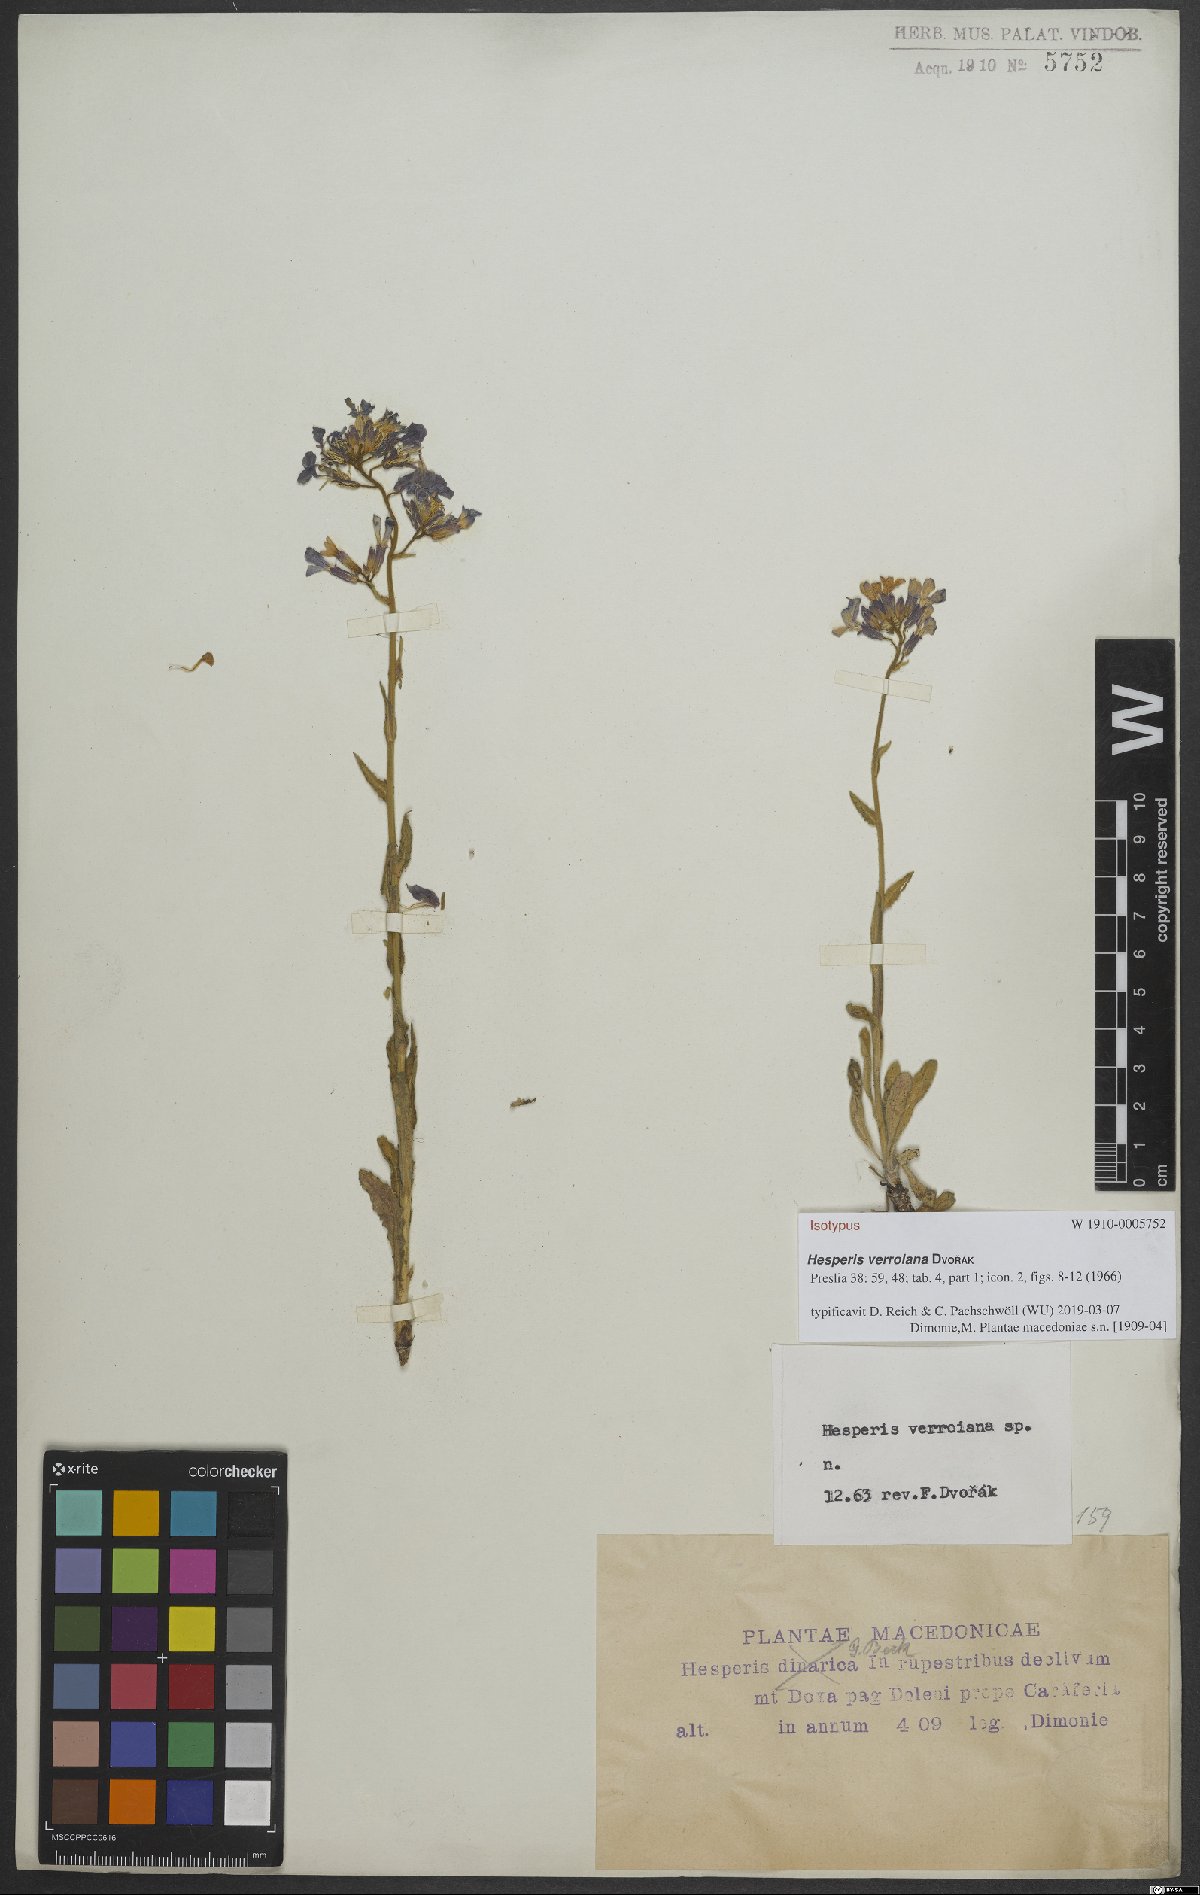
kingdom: Plantae
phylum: Tracheophyta
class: Magnoliopsida
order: Brassicales
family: Brassicaceae
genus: Hesperis
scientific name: Hesperis theophrasti
